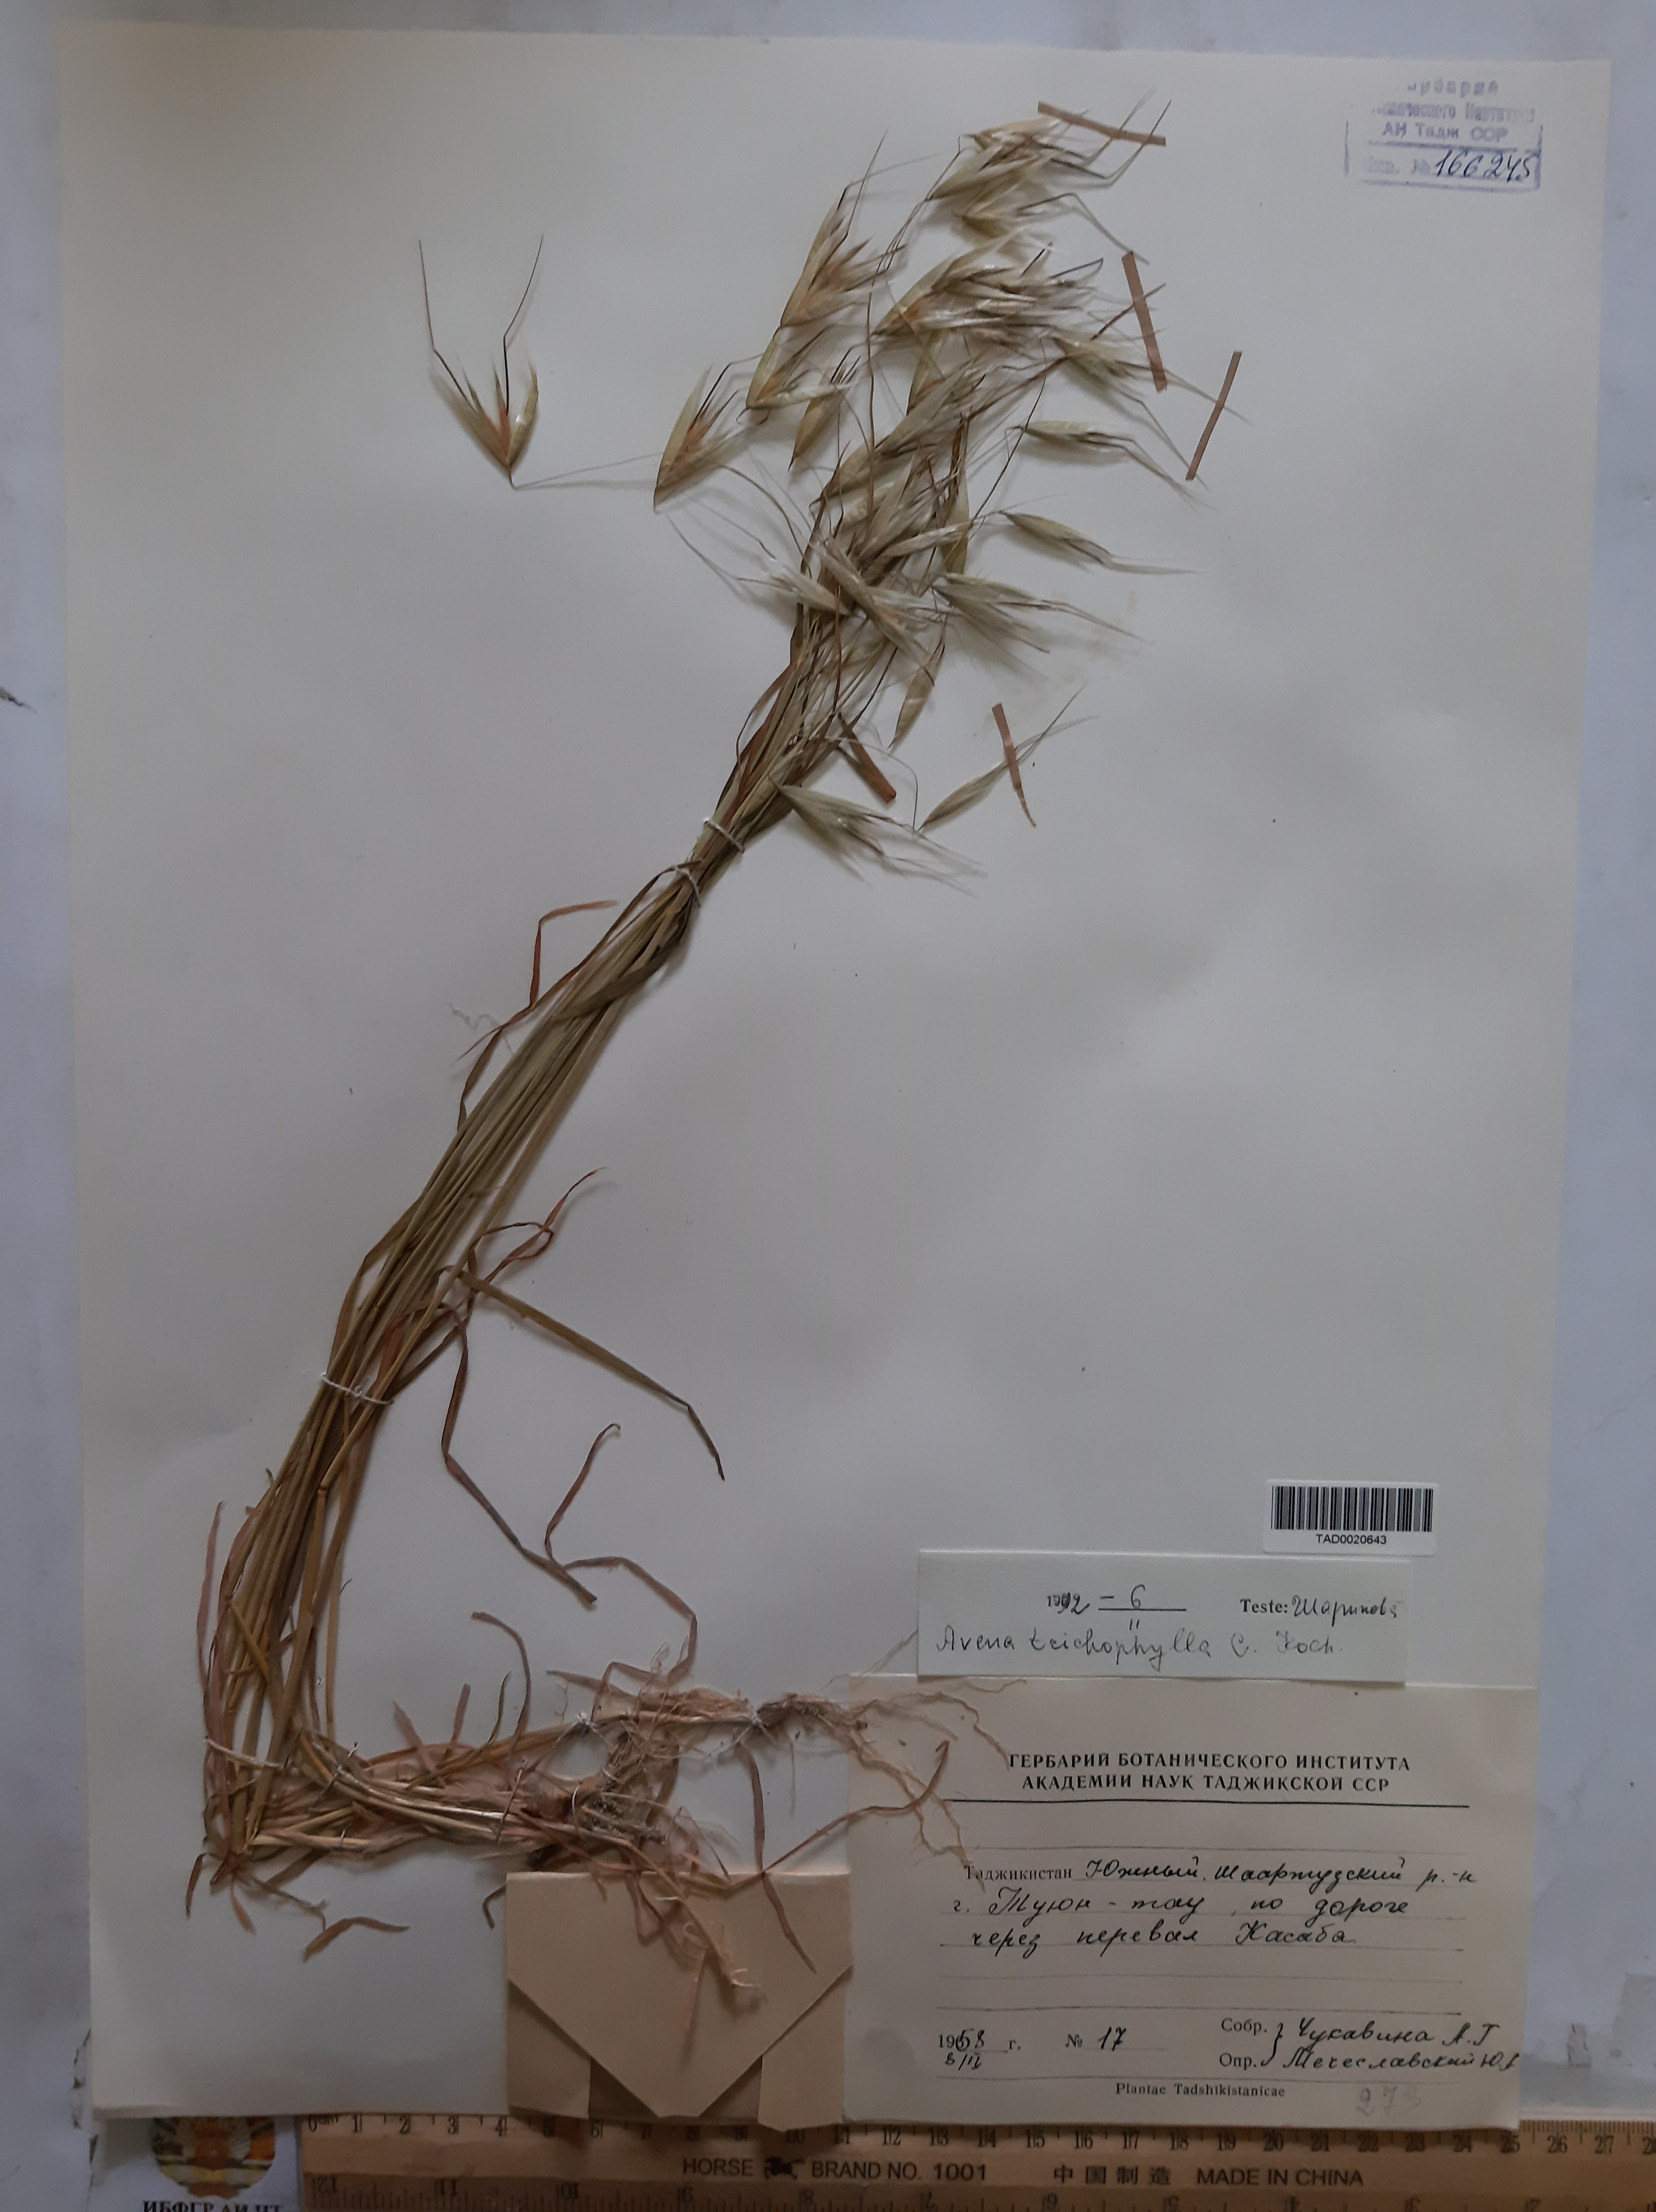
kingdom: Plantae
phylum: Tracheophyta
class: Liliopsida
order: Poales
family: Poaceae
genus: Avena
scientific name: Avena sterilis
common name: Animated oat
